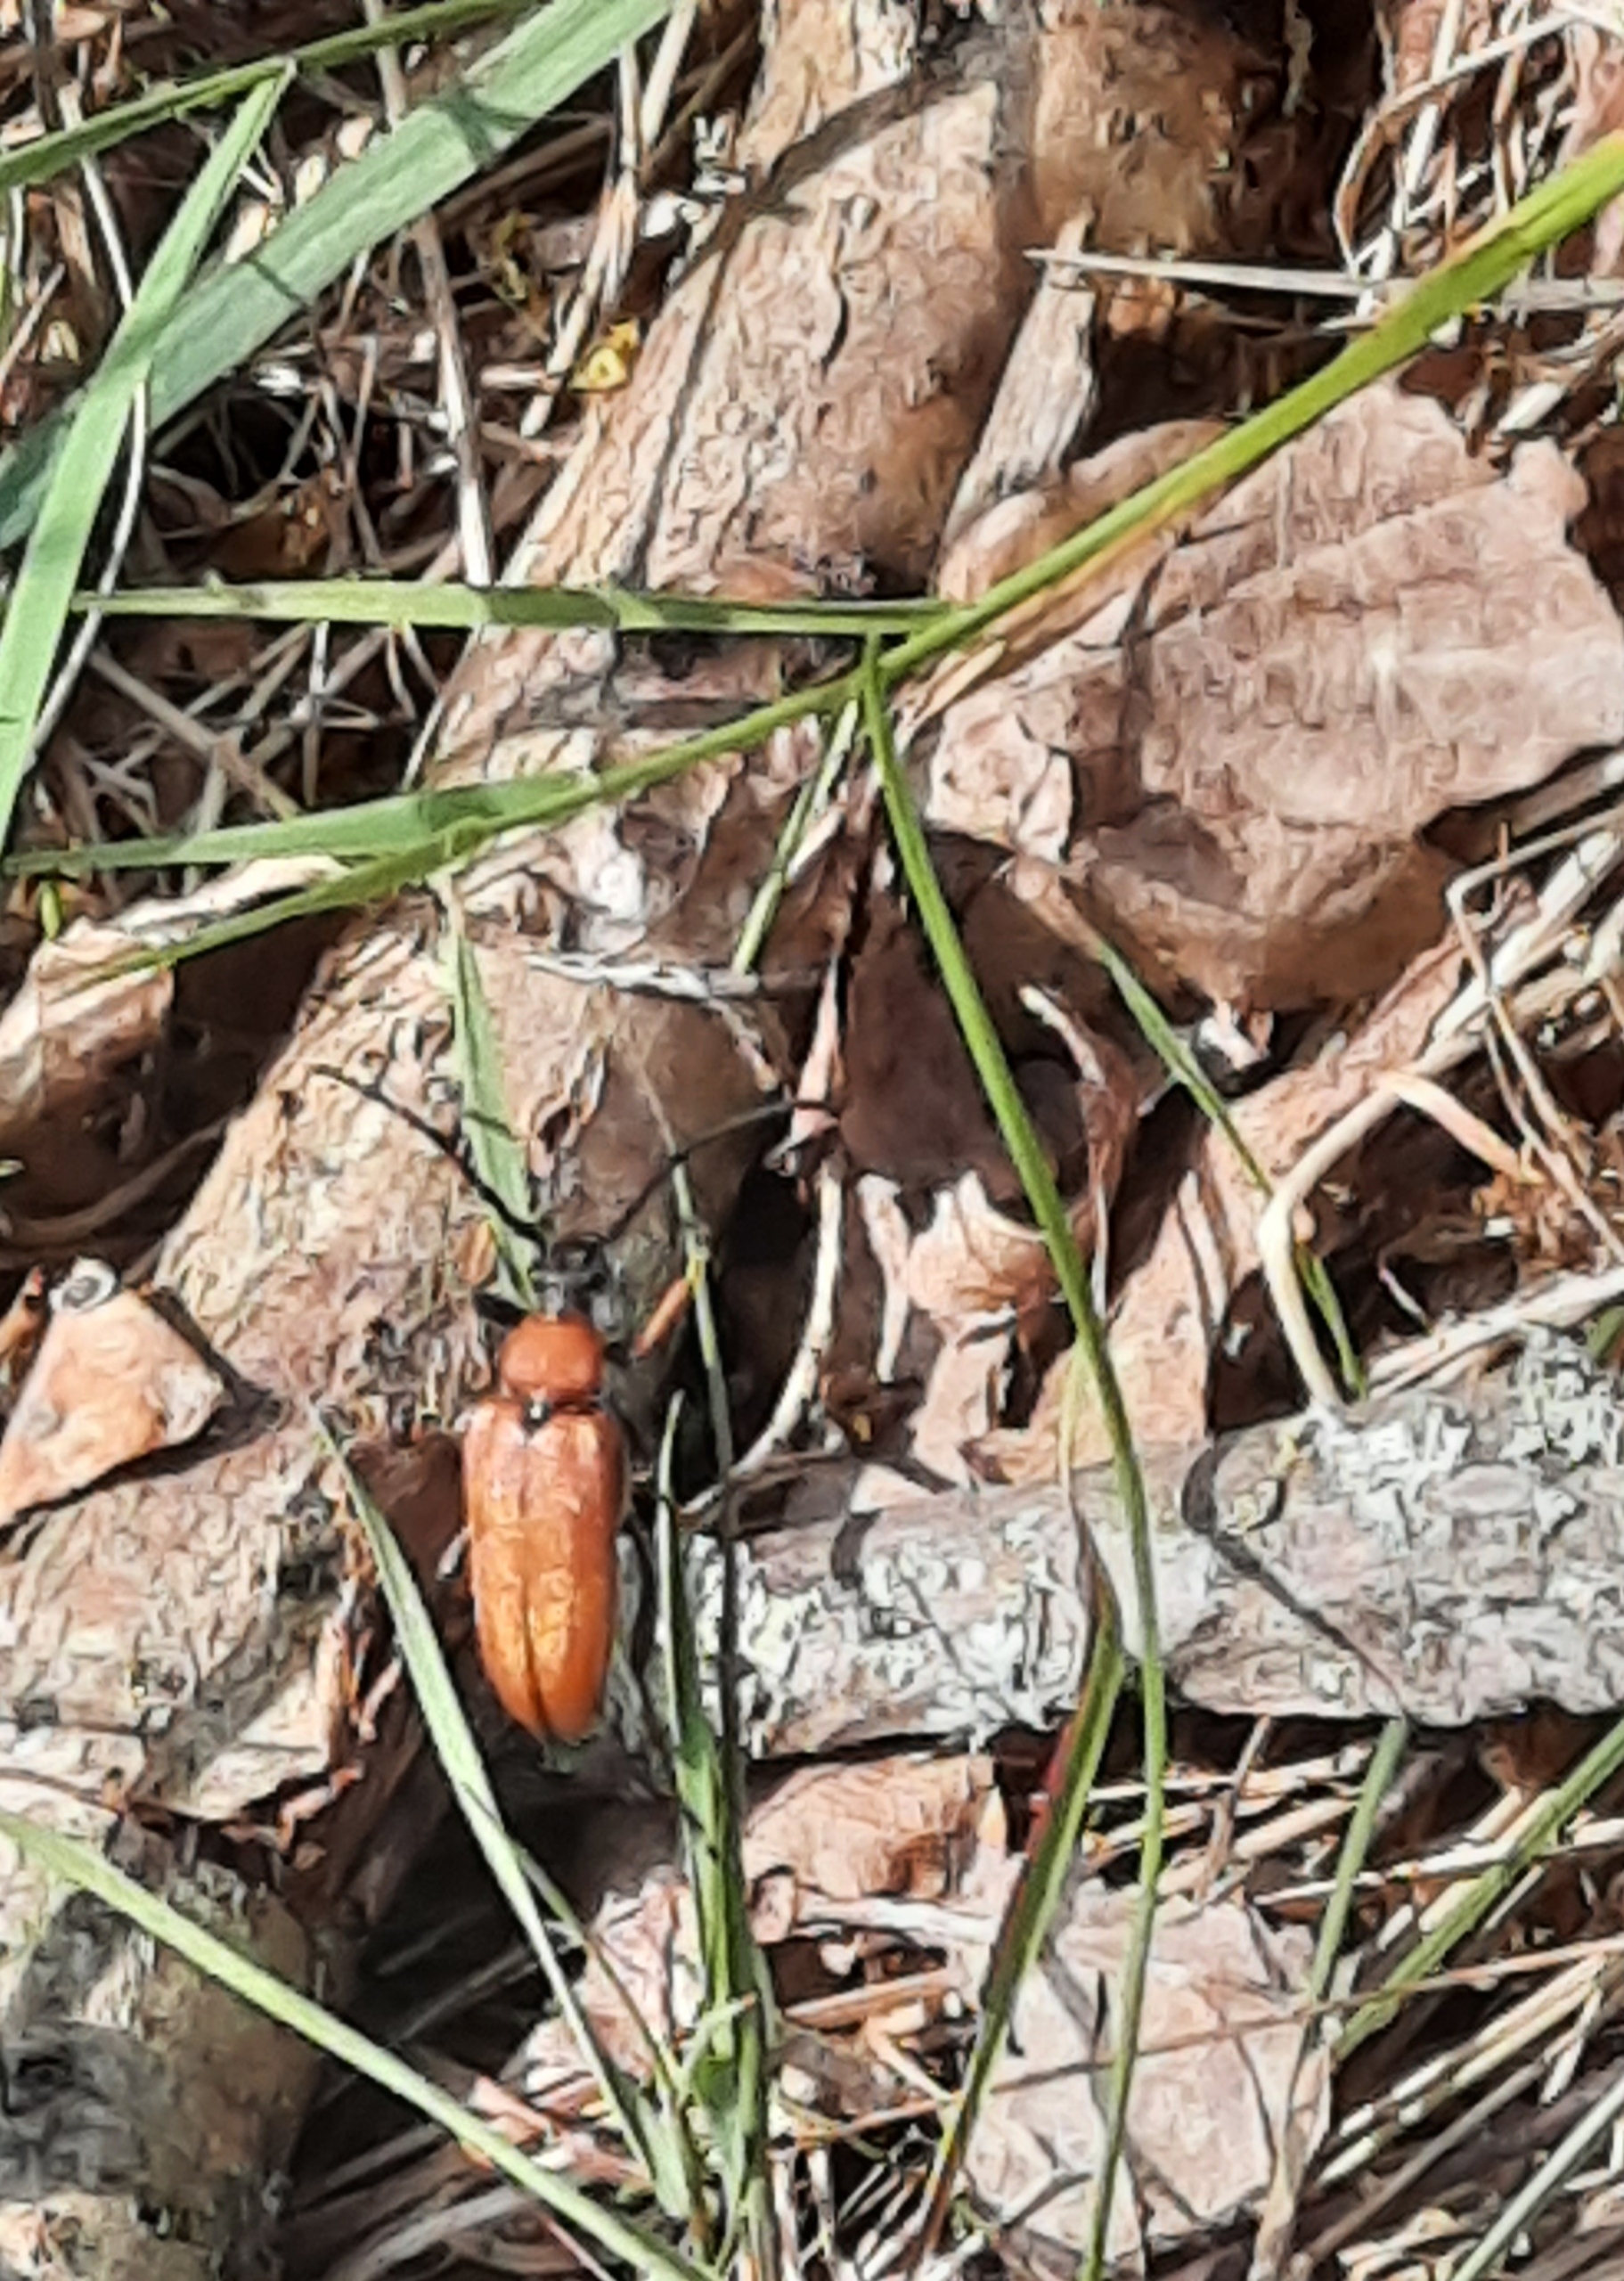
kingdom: Animalia
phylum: Arthropoda
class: Insecta
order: Coleoptera
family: Cerambycidae
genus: Stictoleptura
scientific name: Stictoleptura rubra
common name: Rød blomsterbuk
